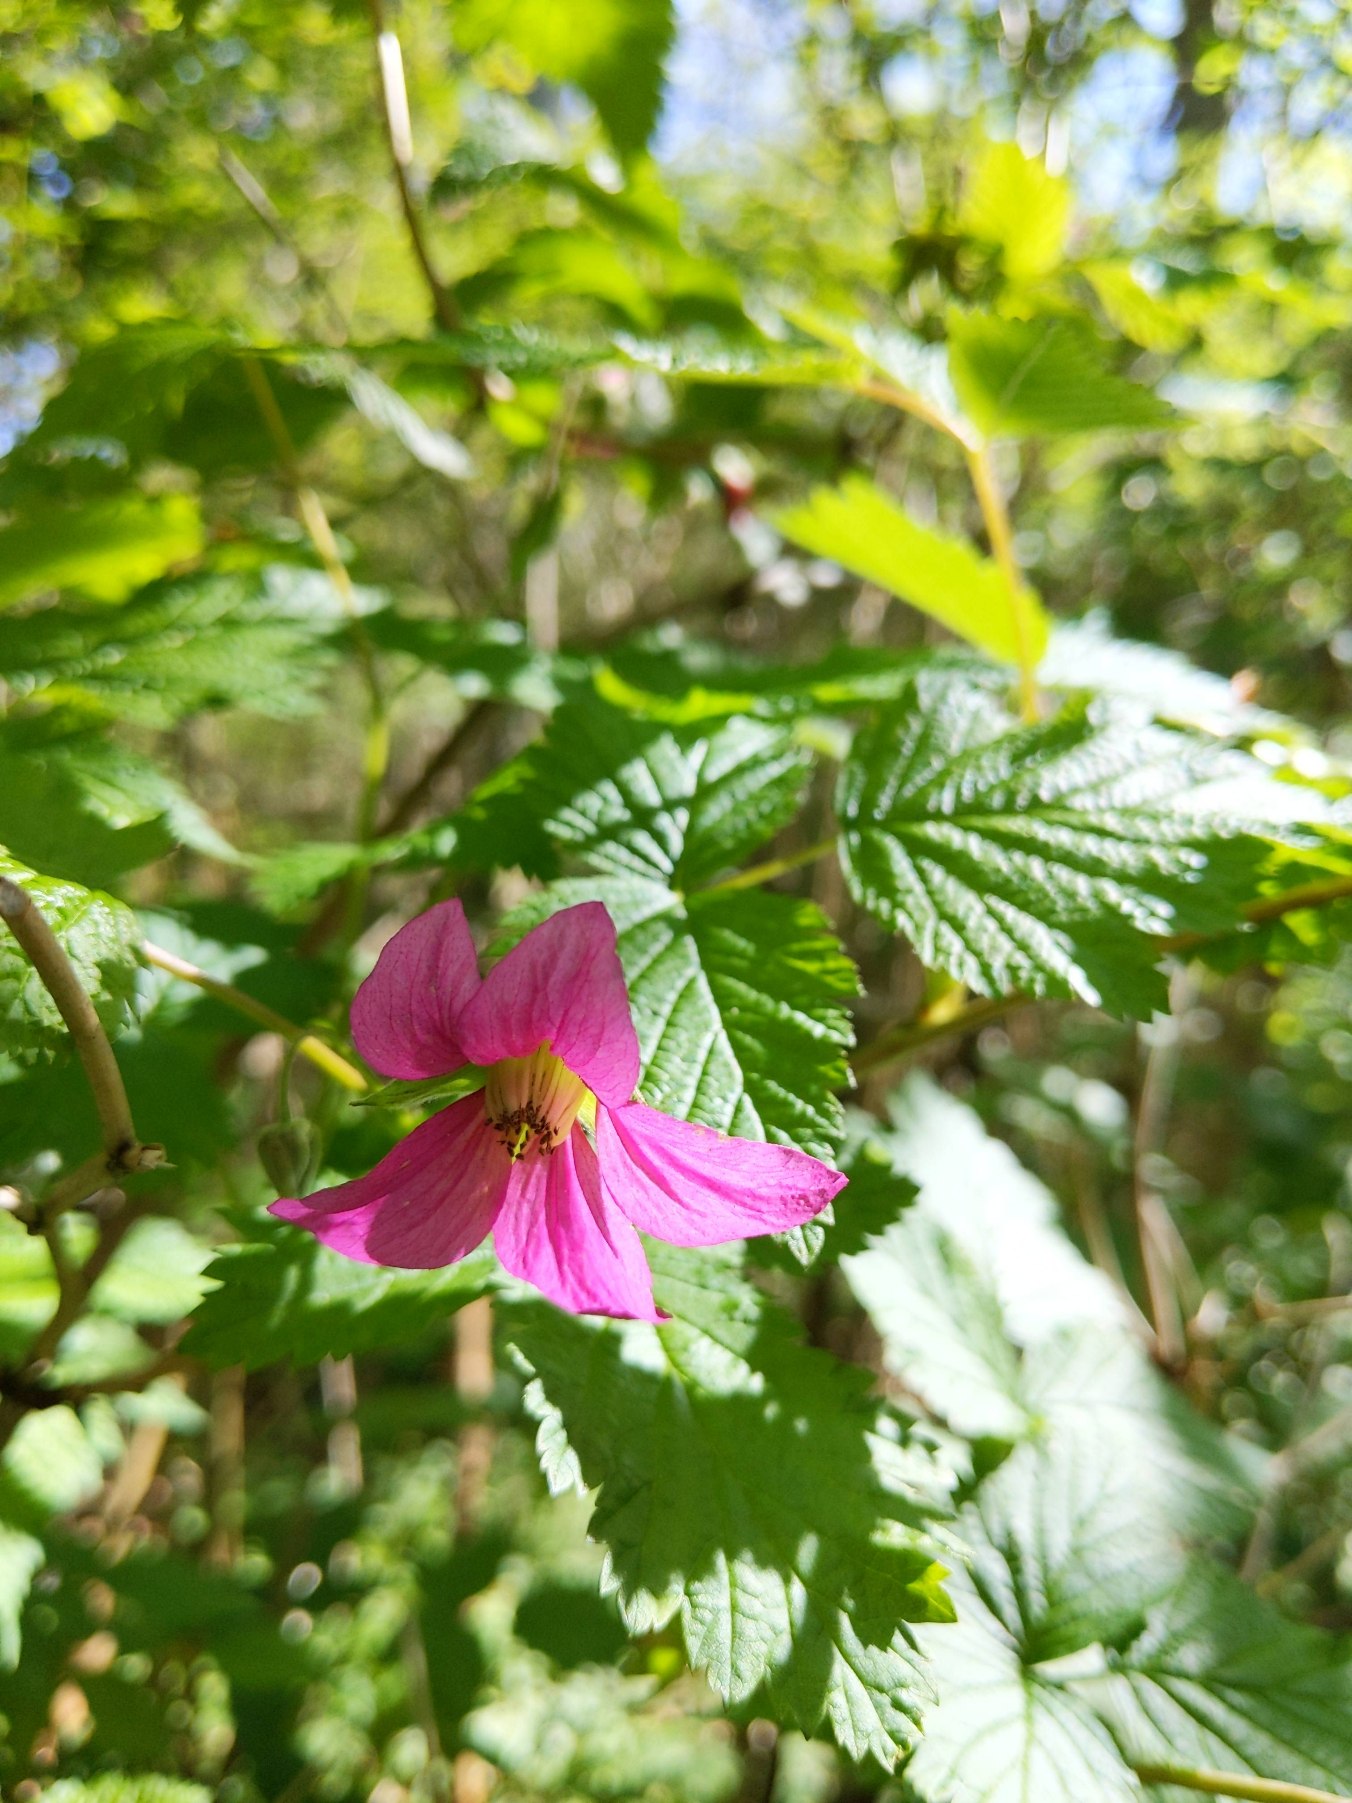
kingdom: Plantae
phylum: Tracheophyta
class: Magnoliopsida
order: Rosales
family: Rosaceae
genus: Rubus
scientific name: Rubus spectabilis
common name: Laksebær
